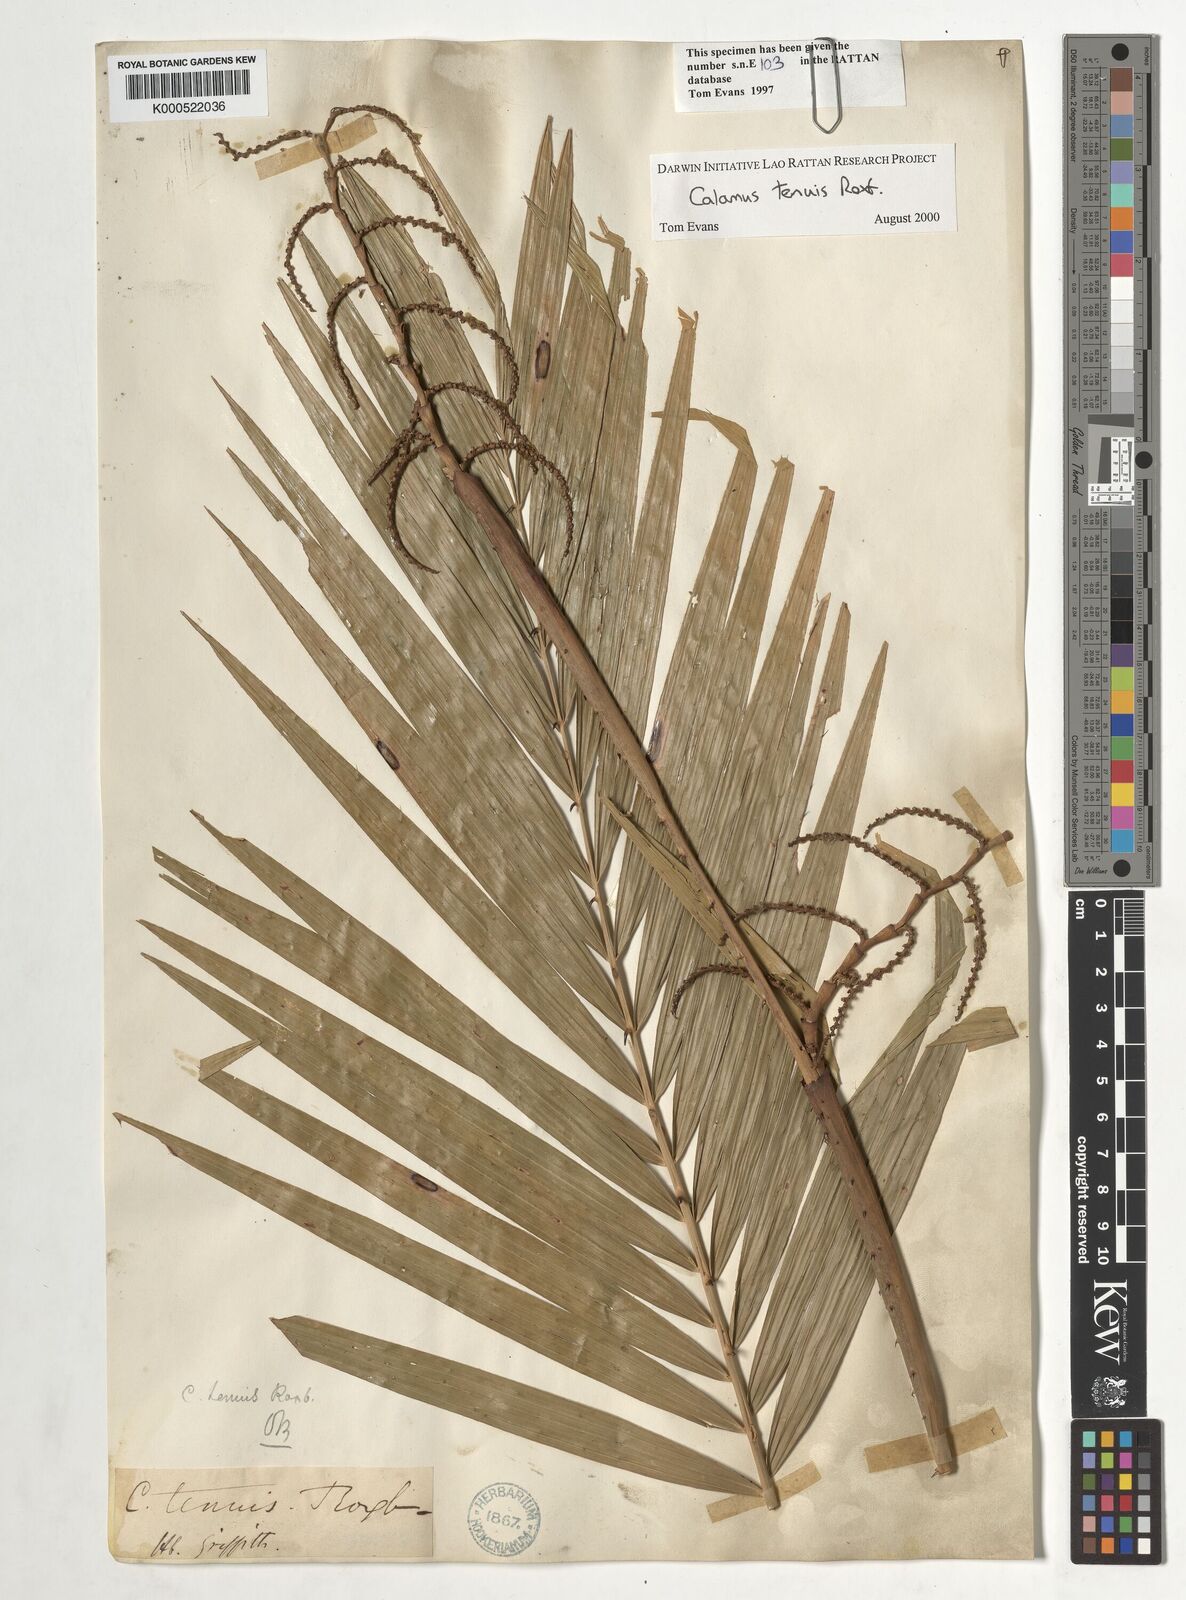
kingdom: Plantae
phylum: Tracheophyta
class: Liliopsida
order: Arecales
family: Arecaceae
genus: Calamus
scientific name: Calamus tenuis
